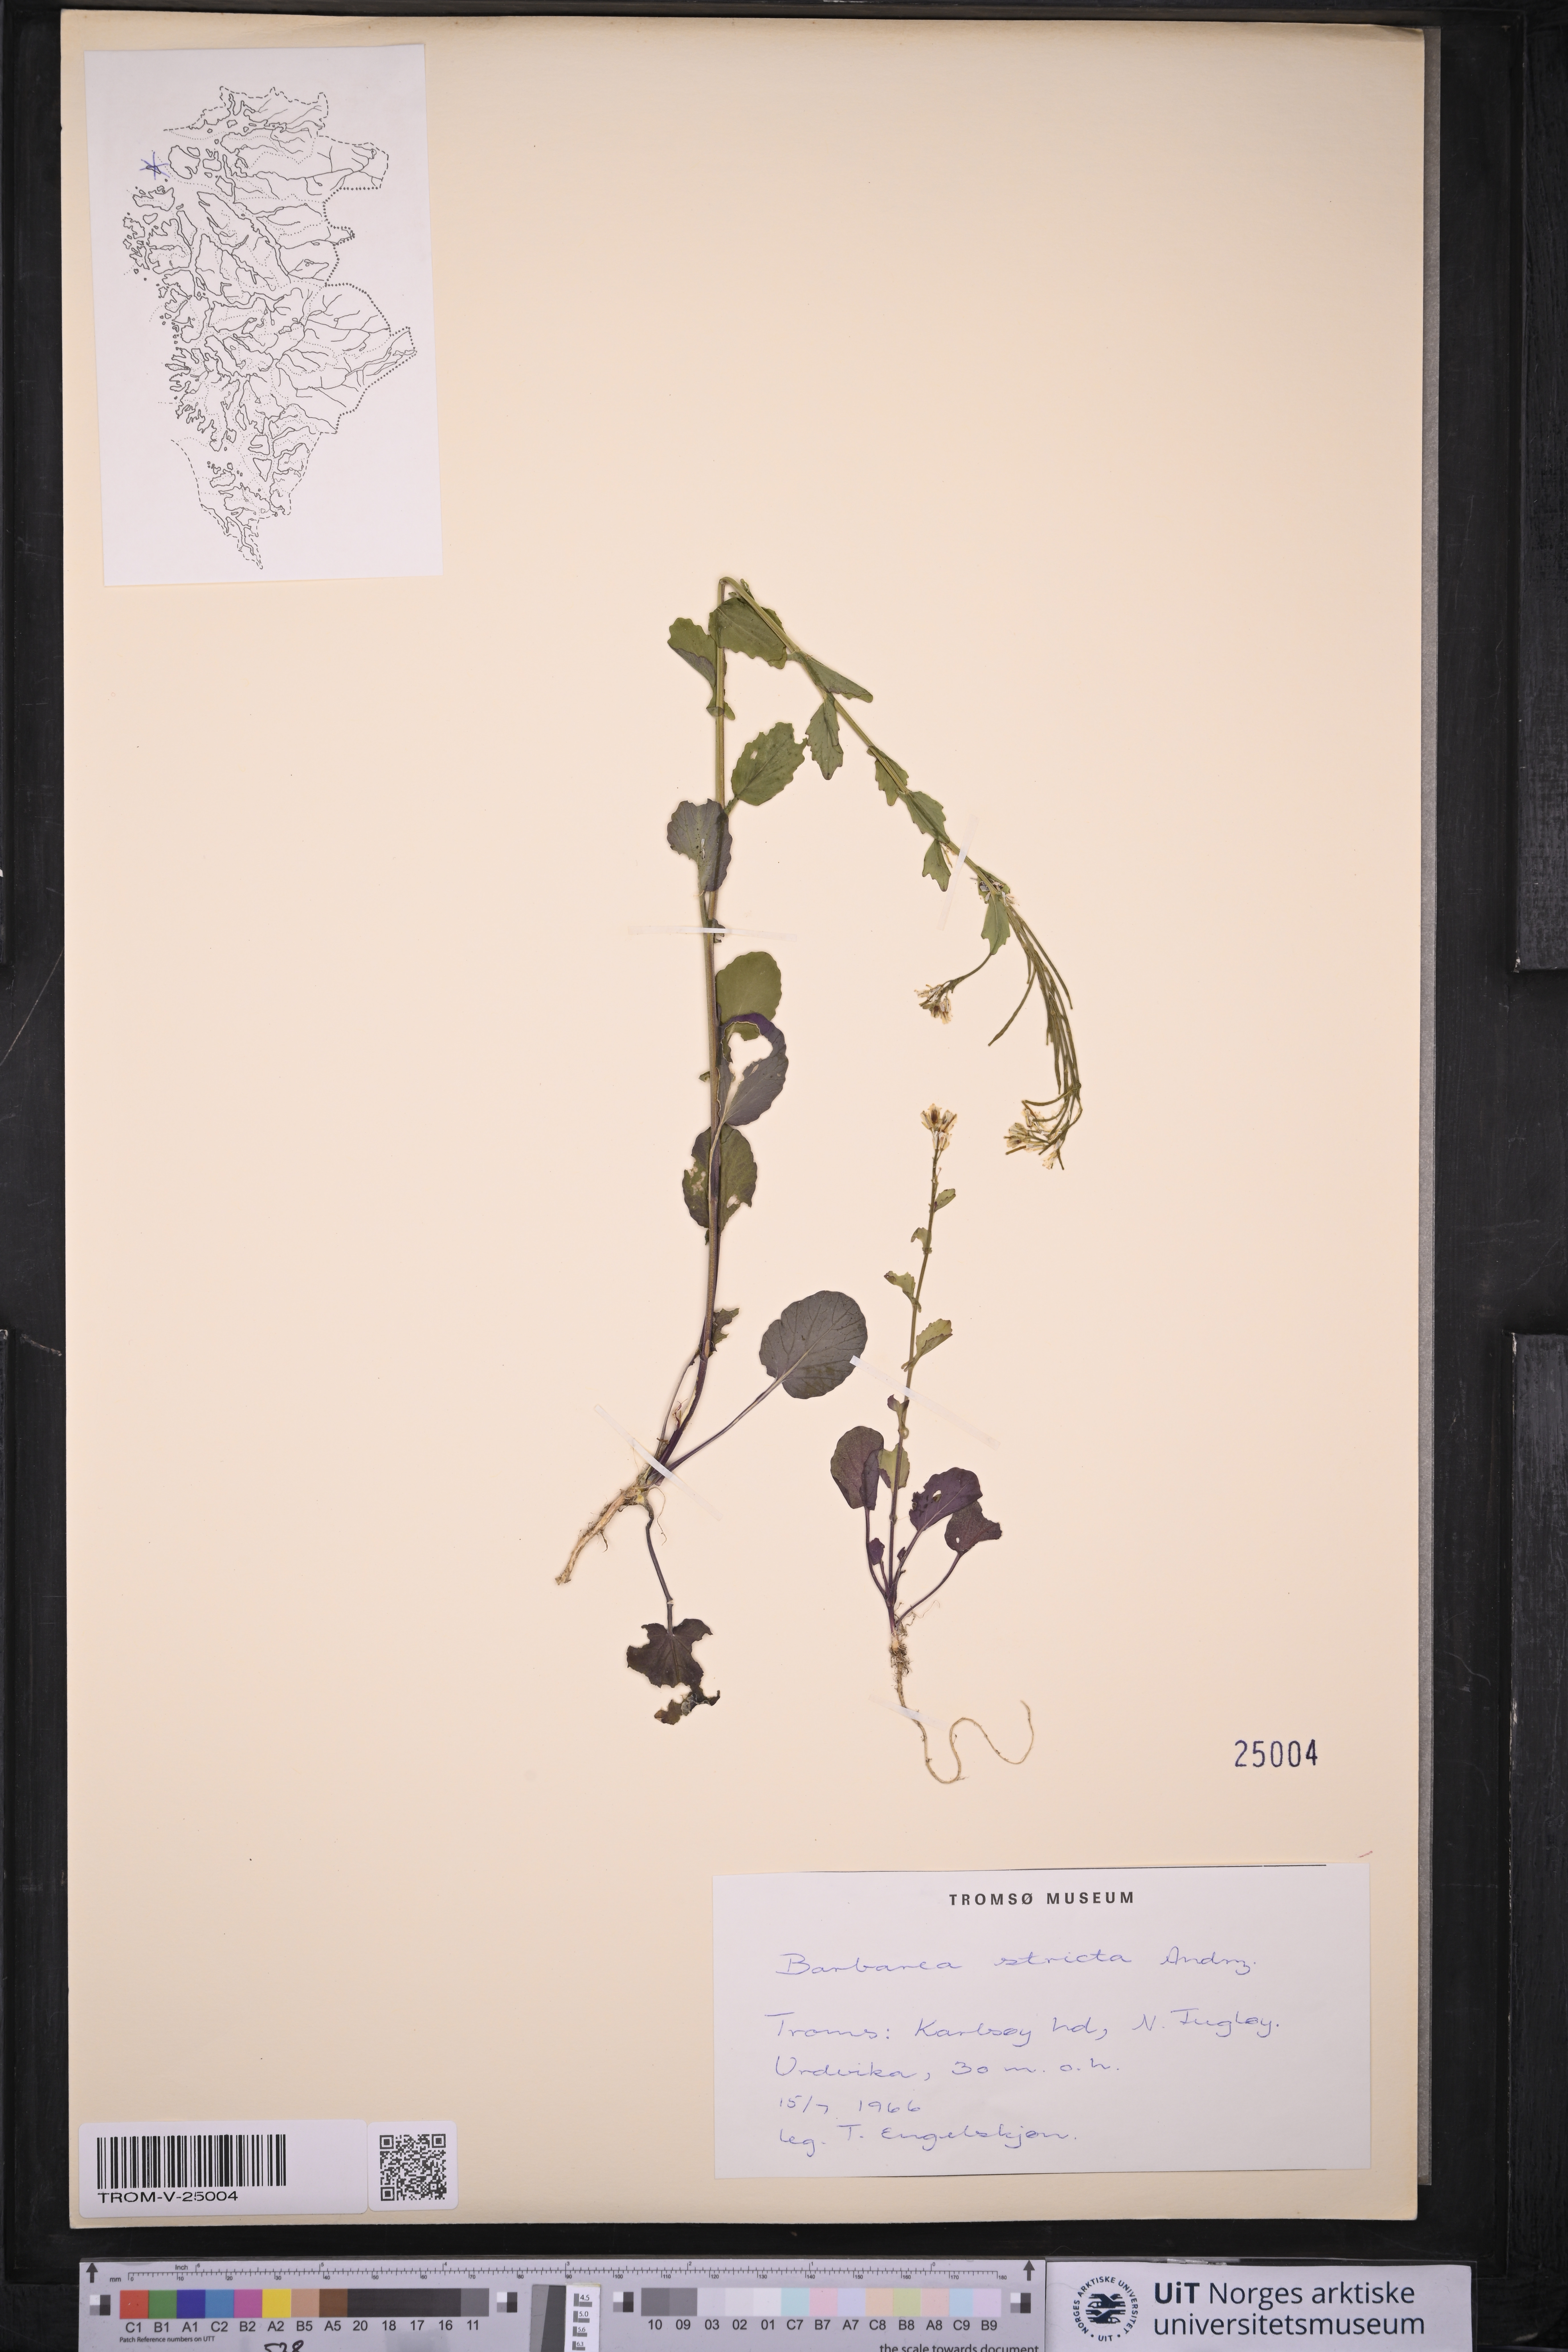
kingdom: Plantae
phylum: Tracheophyta
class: Magnoliopsida
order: Brassicales
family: Brassicaceae
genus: Barbarea
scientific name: Barbarea stricta
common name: Small-flowered winter-cress
